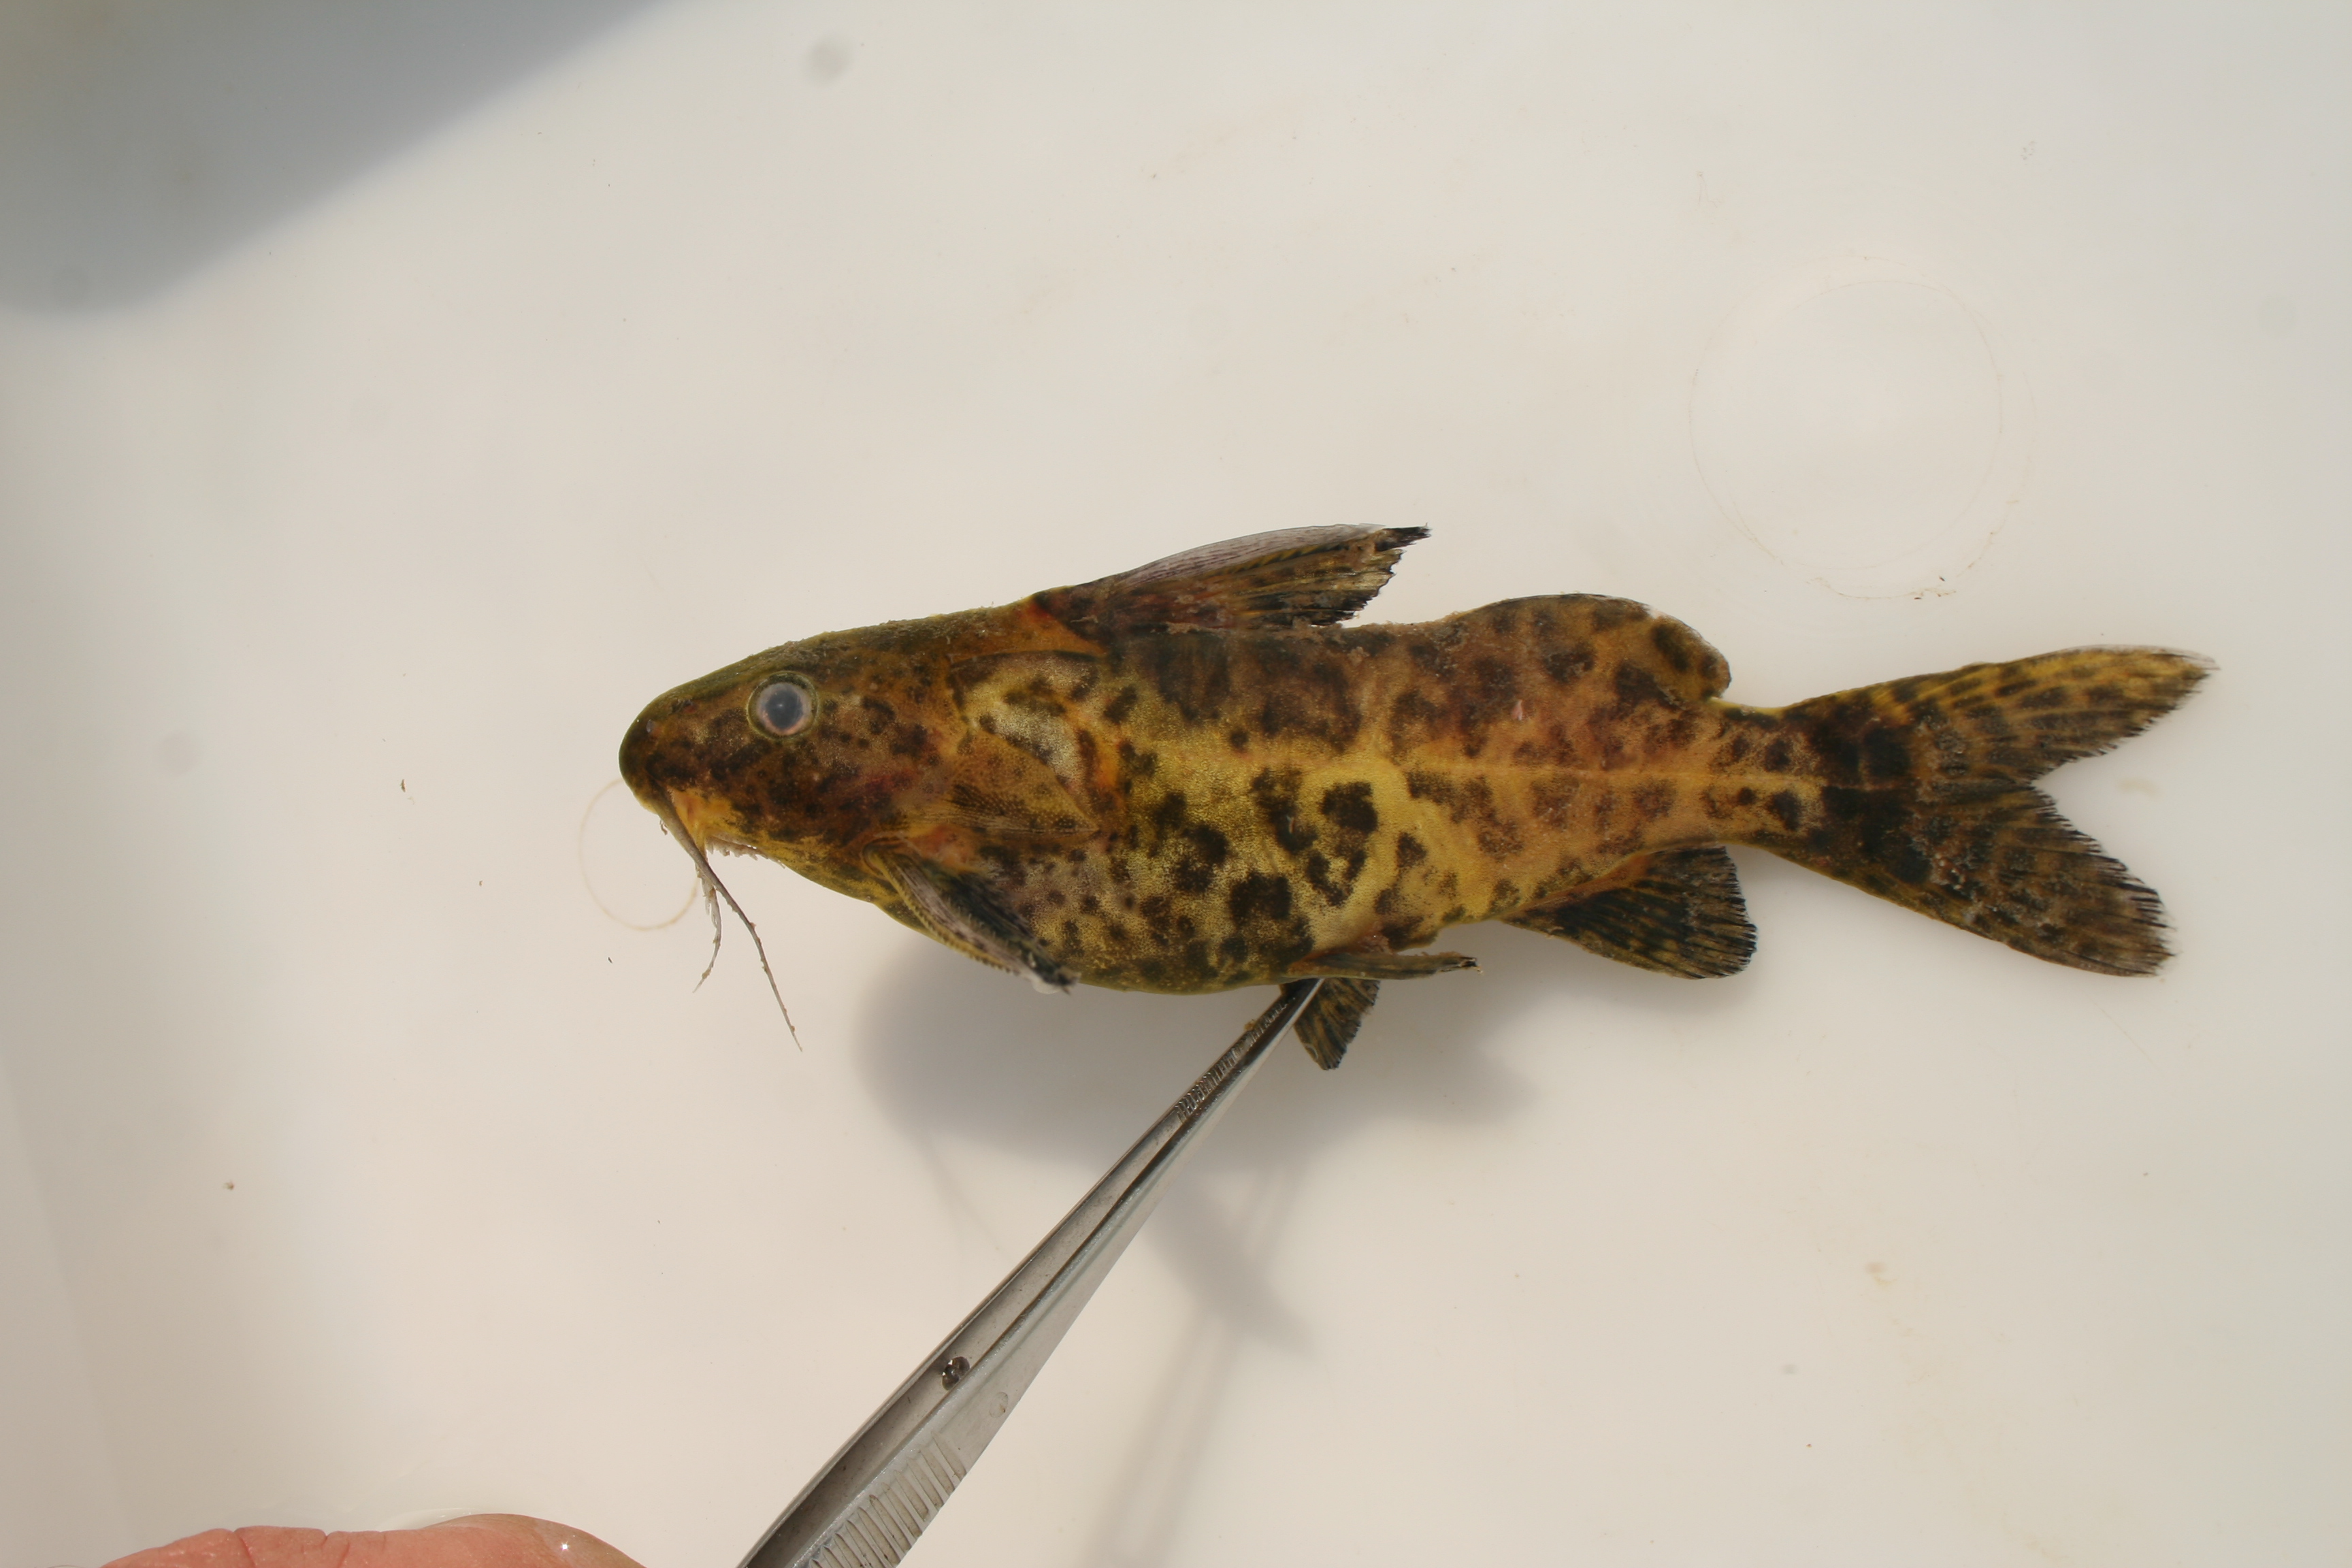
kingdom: Animalia
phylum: Chordata
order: Siluriformes
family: Mochokidae
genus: Synodontis
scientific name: Synodontis
